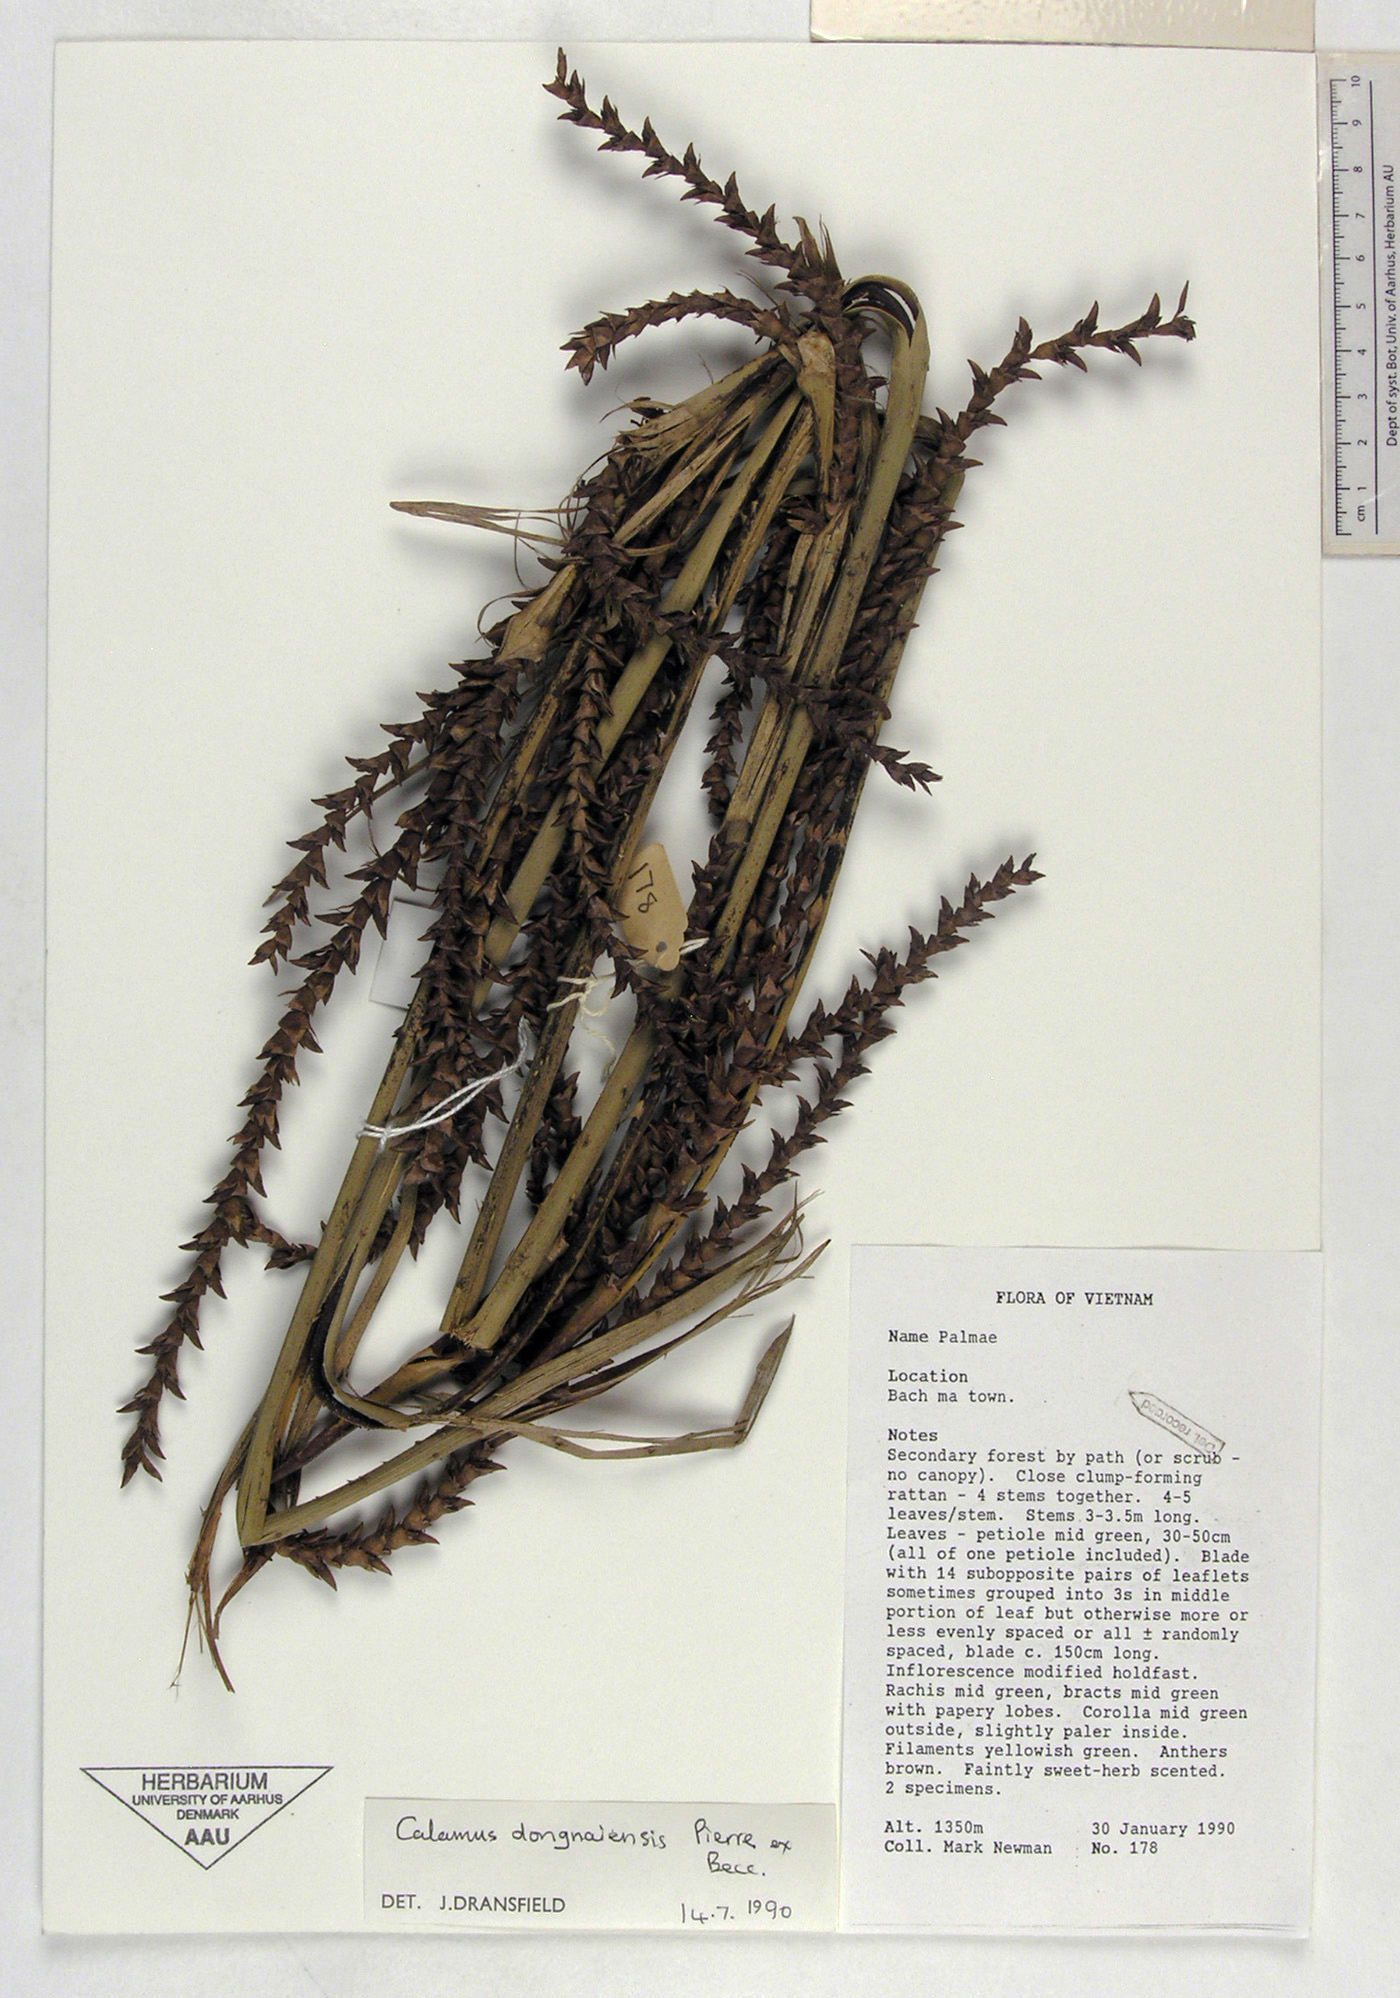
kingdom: Plantae
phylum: Tracheophyta
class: Liliopsida
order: Arecales
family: Arecaceae
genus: Calamus
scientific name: Calamus flagellum
